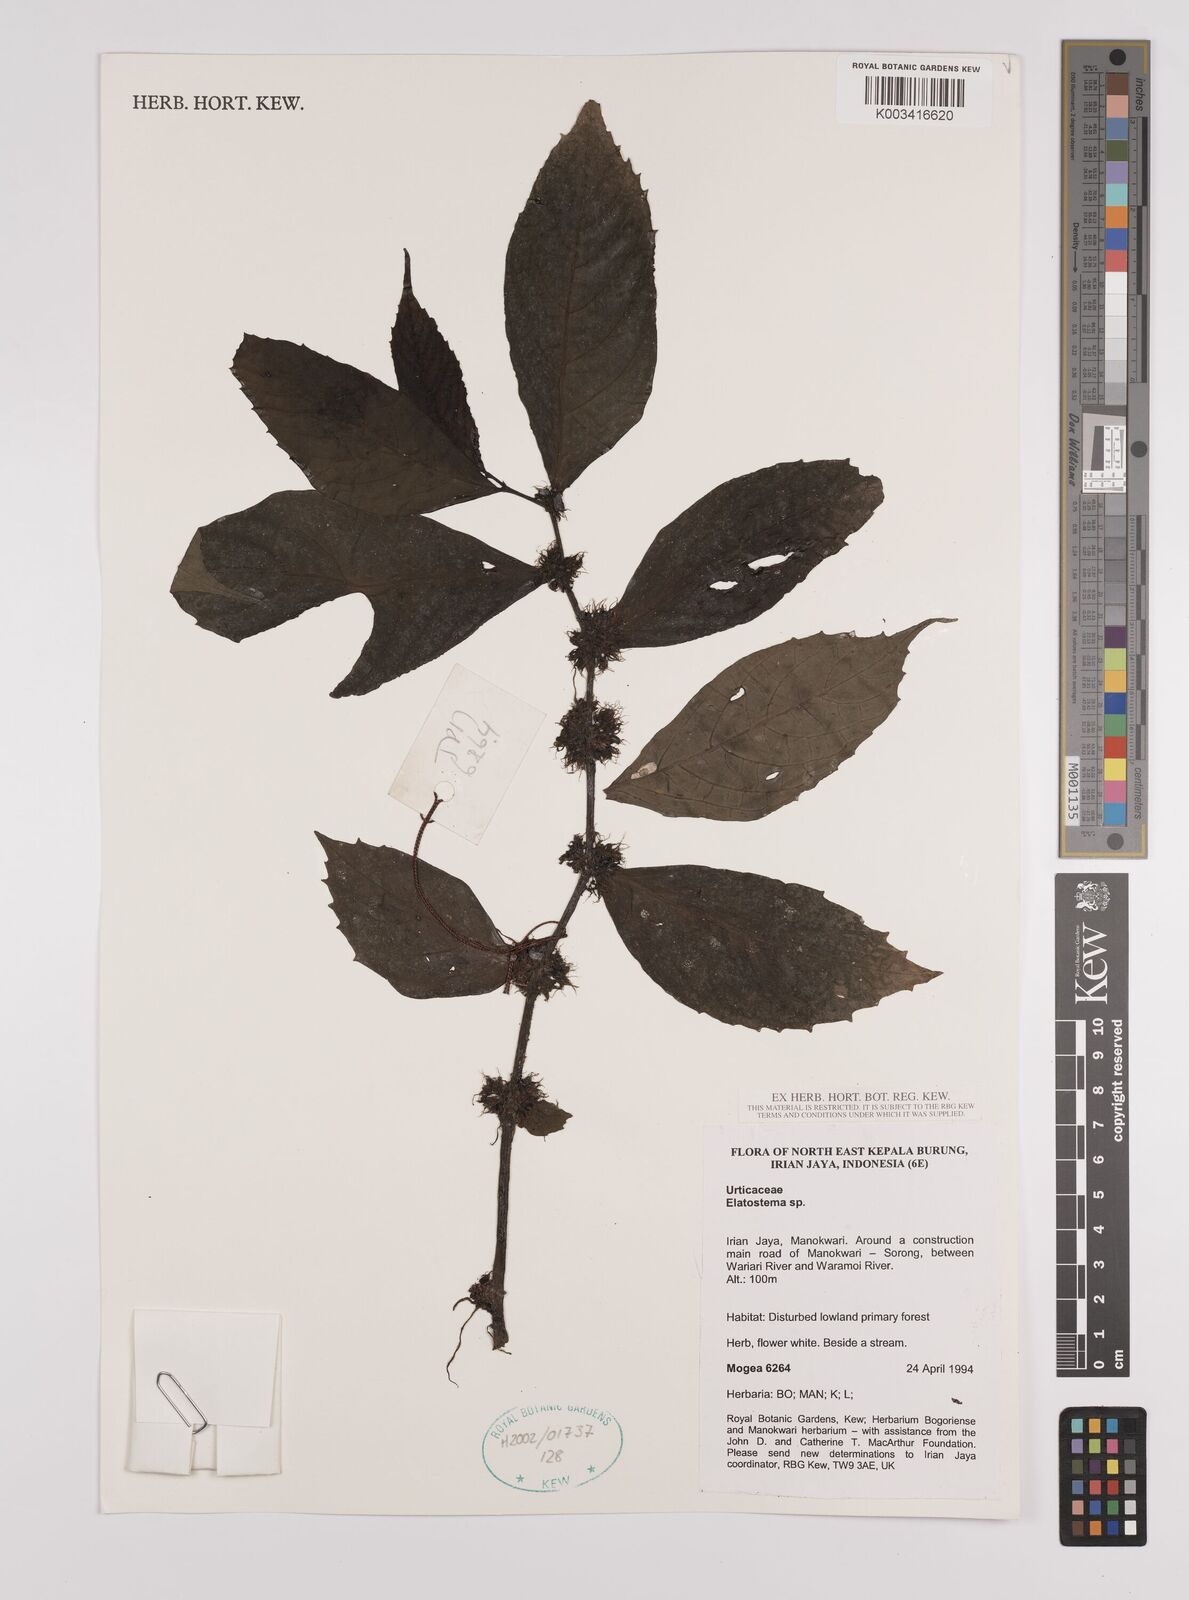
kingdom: Plantae
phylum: Tracheophyta
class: Magnoliopsida
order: Rosales
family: Urticaceae
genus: Elatostema
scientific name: Elatostema
